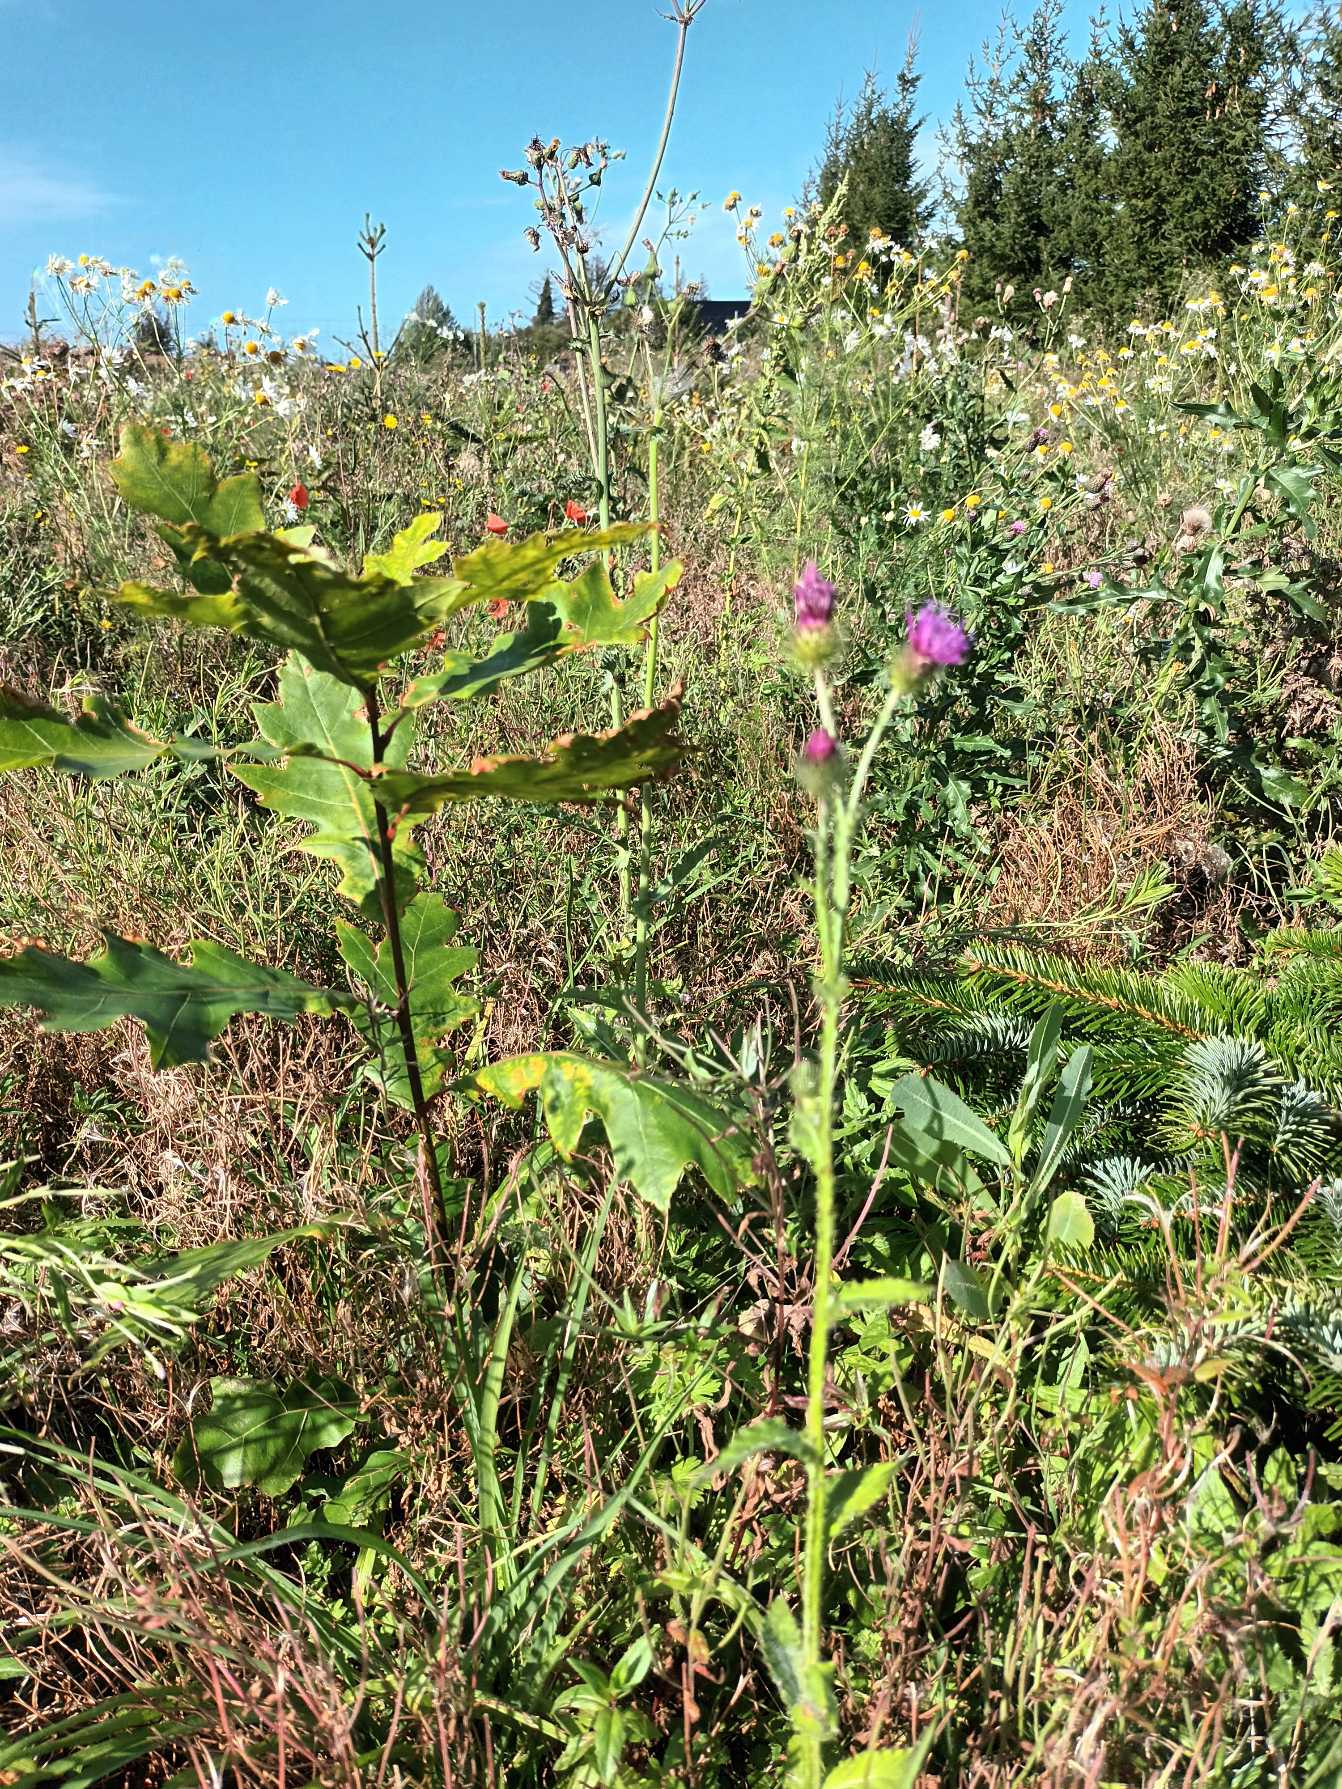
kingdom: Plantae
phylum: Tracheophyta
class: Magnoliopsida
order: Asterales
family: Asteraceae
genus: Carduus
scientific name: Carduus crispus
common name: Kruset tidsel
